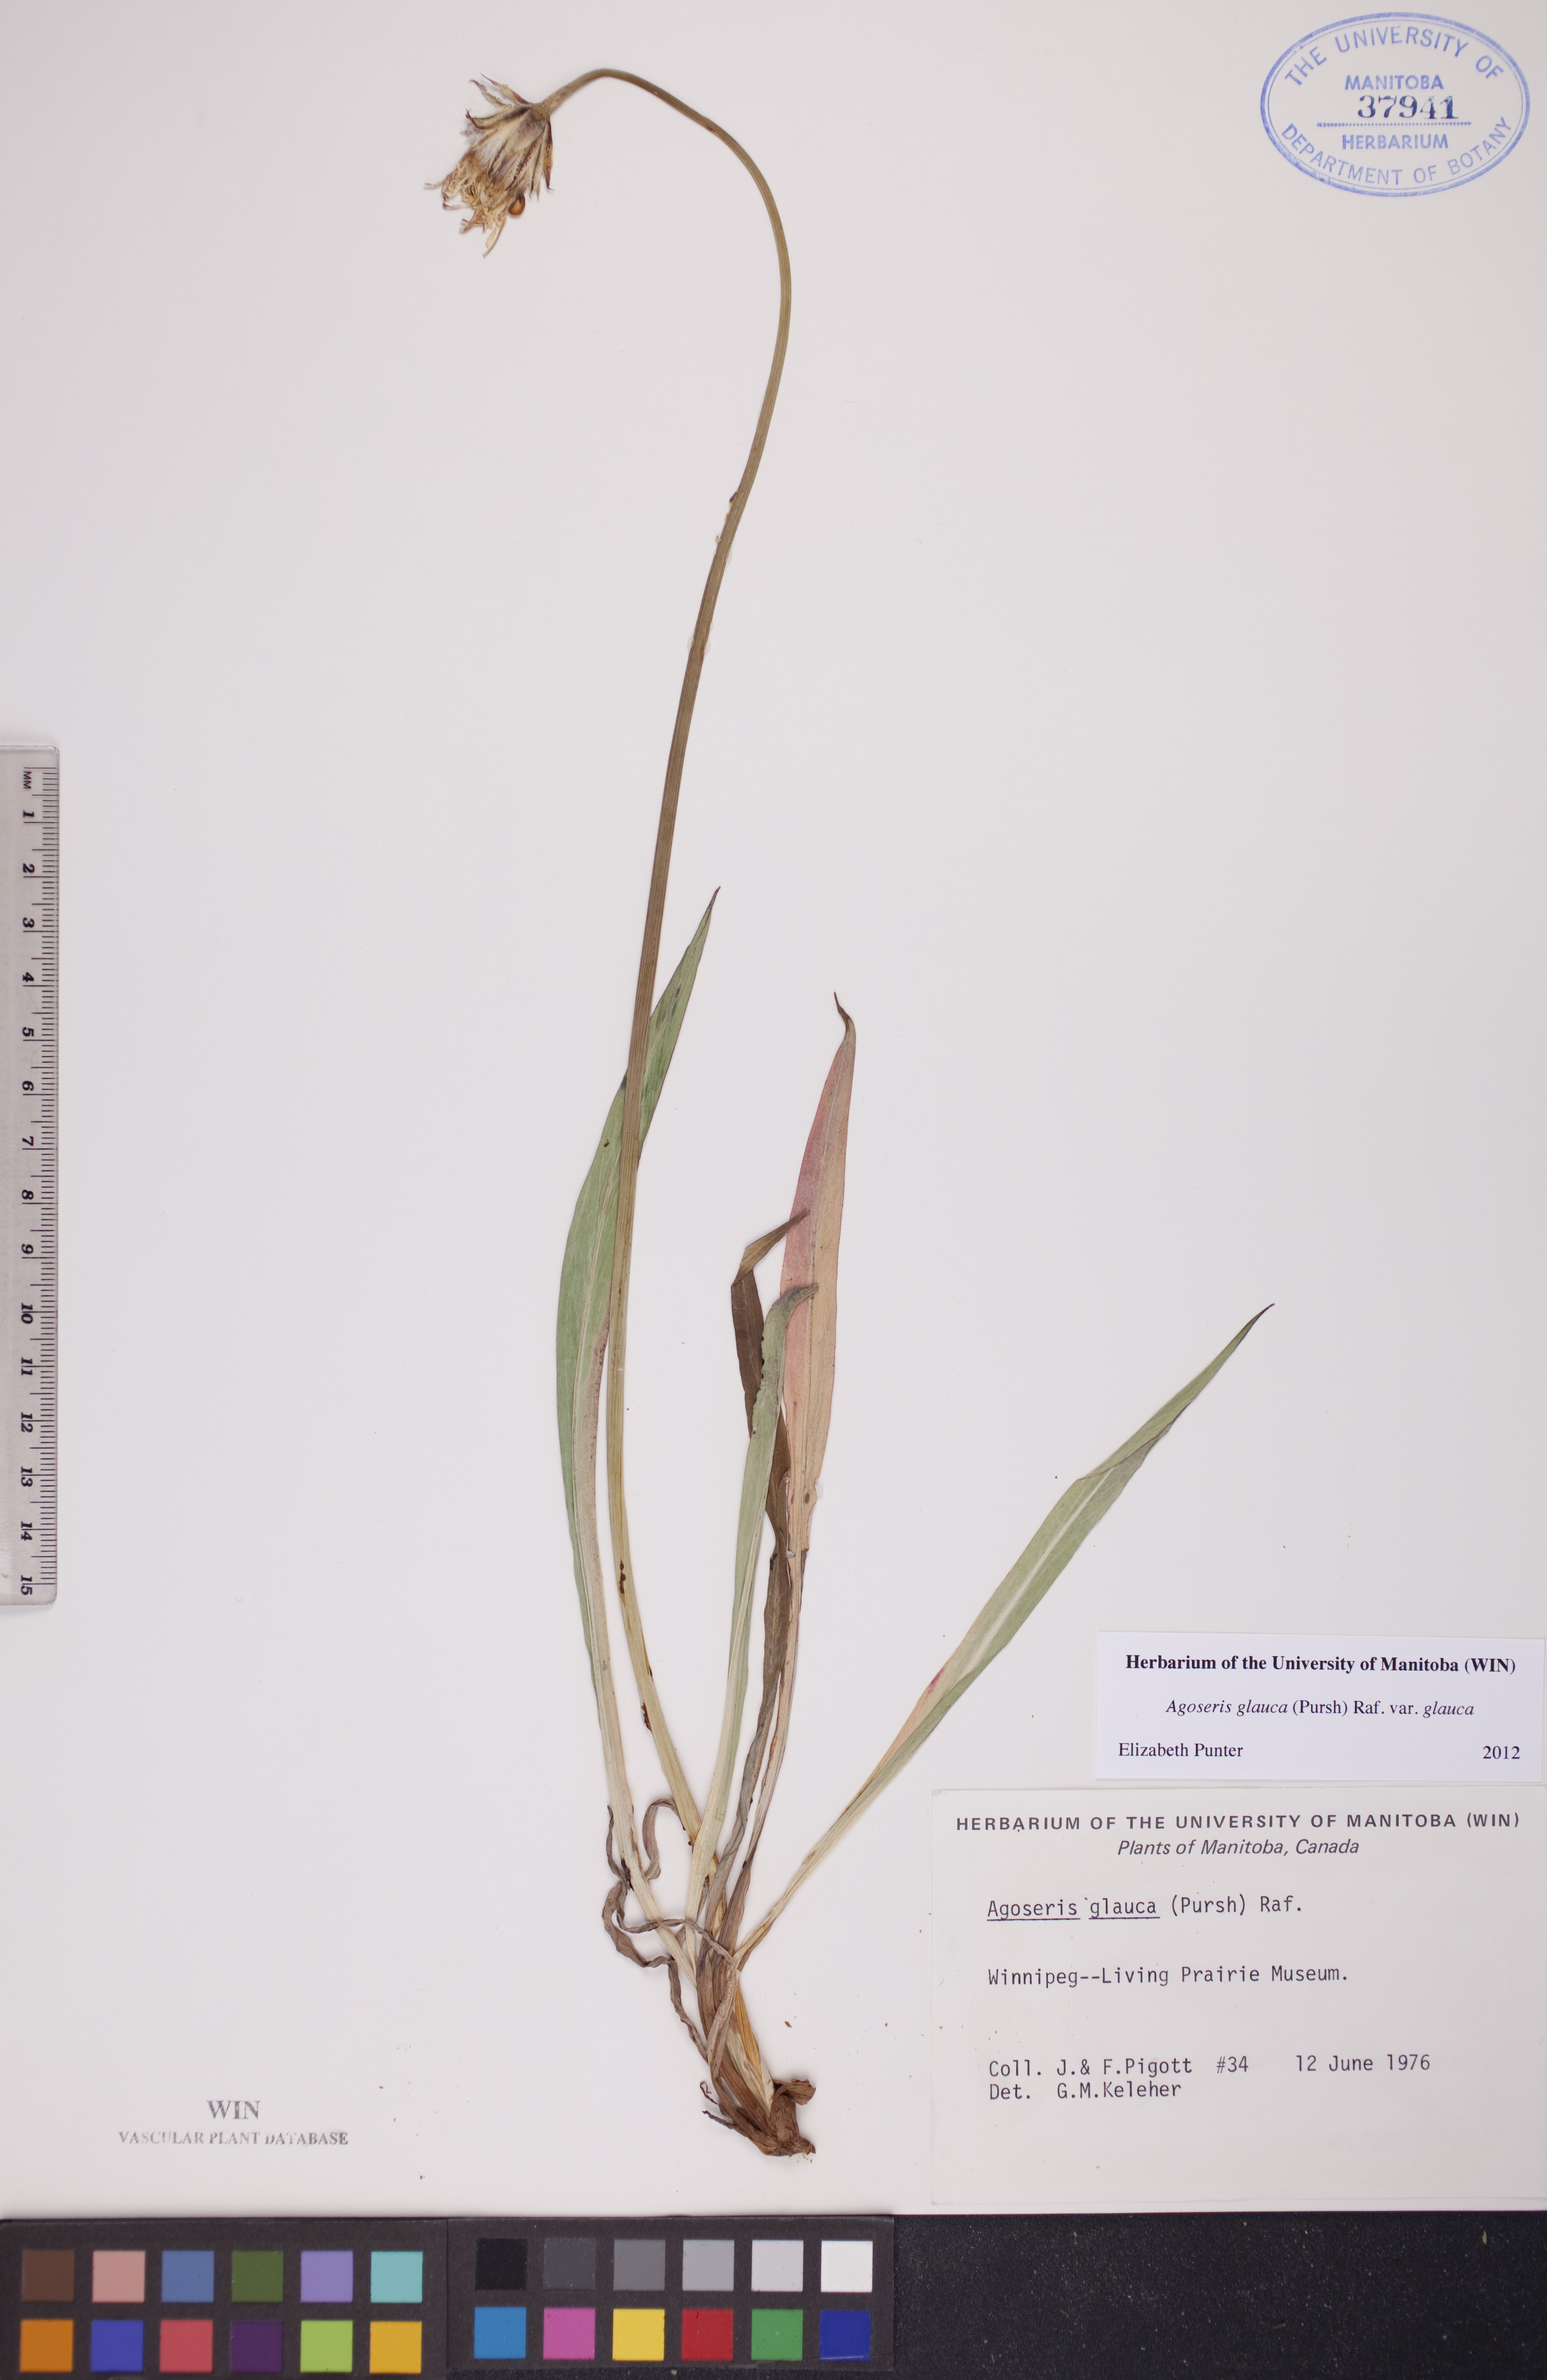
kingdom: Plantae
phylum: Tracheophyta
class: Magnoliopsida
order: Asterales
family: Asteraceae
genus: Agoseris
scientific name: Agoseris glauca
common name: Prairie agoseris
